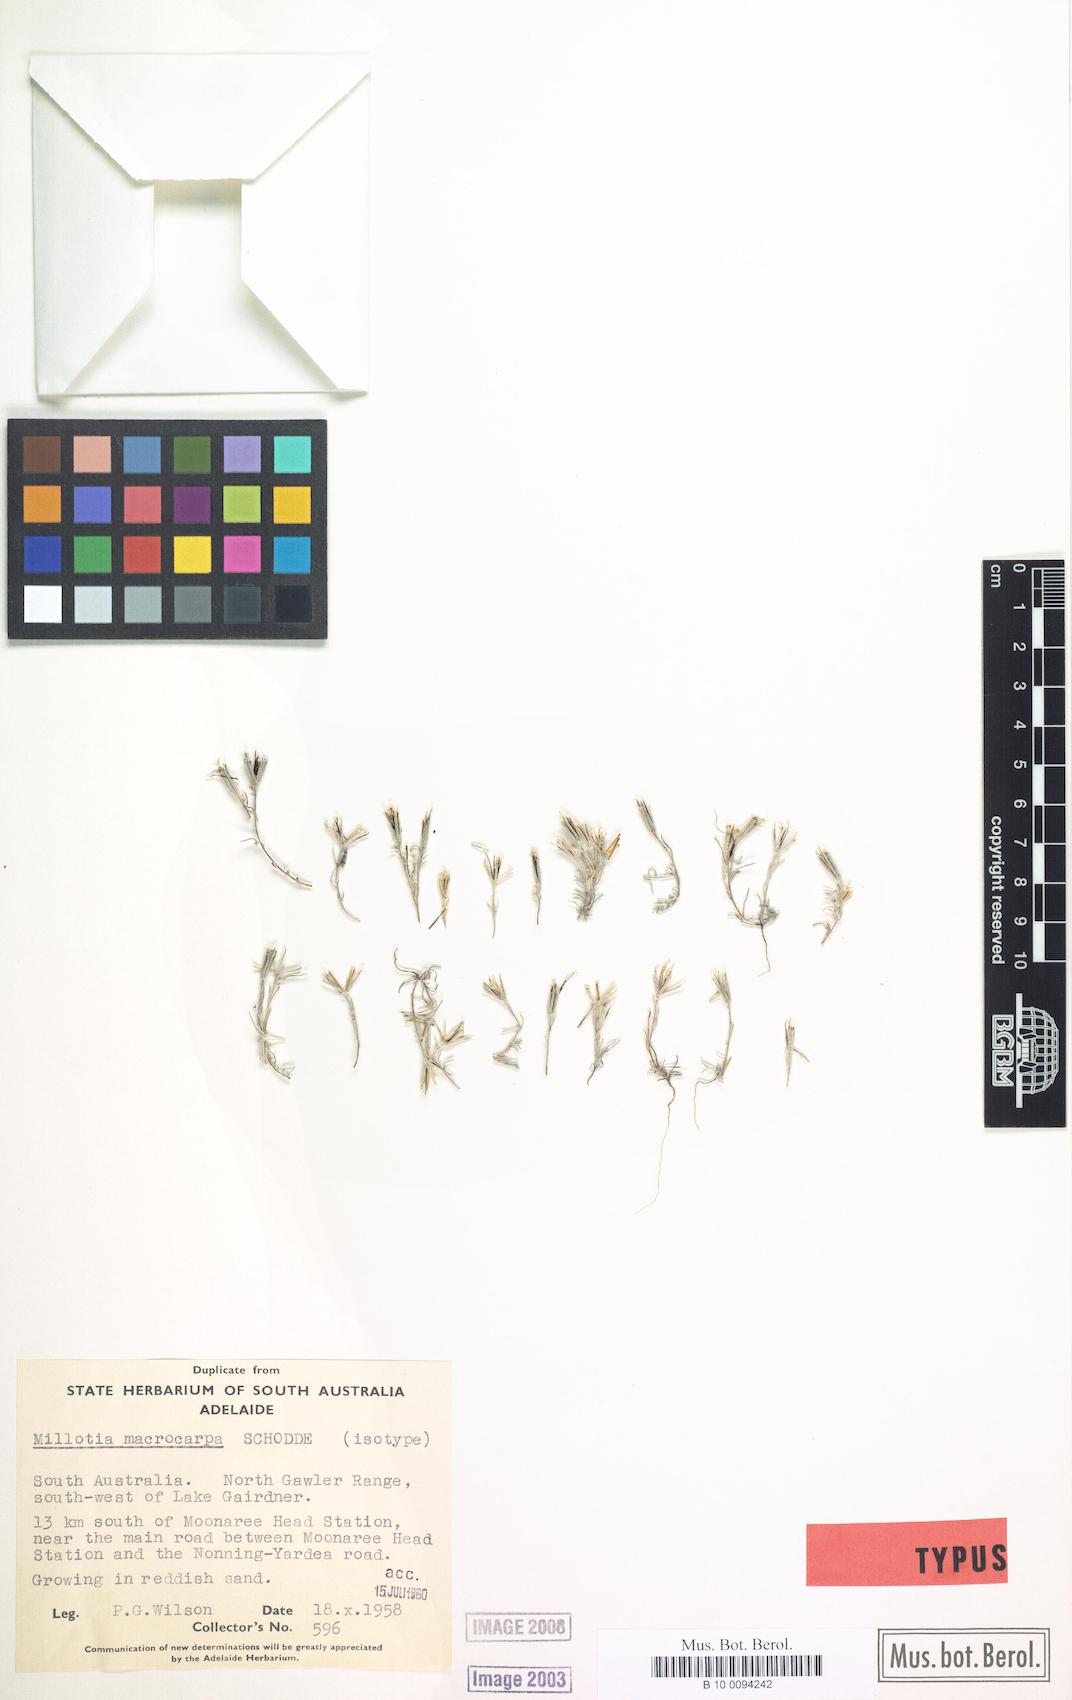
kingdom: Plantae
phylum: Tracheophyta
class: Magnoliopsida
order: Asterales
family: Asteraceae
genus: Millotia
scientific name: Millotia macrocarpa
